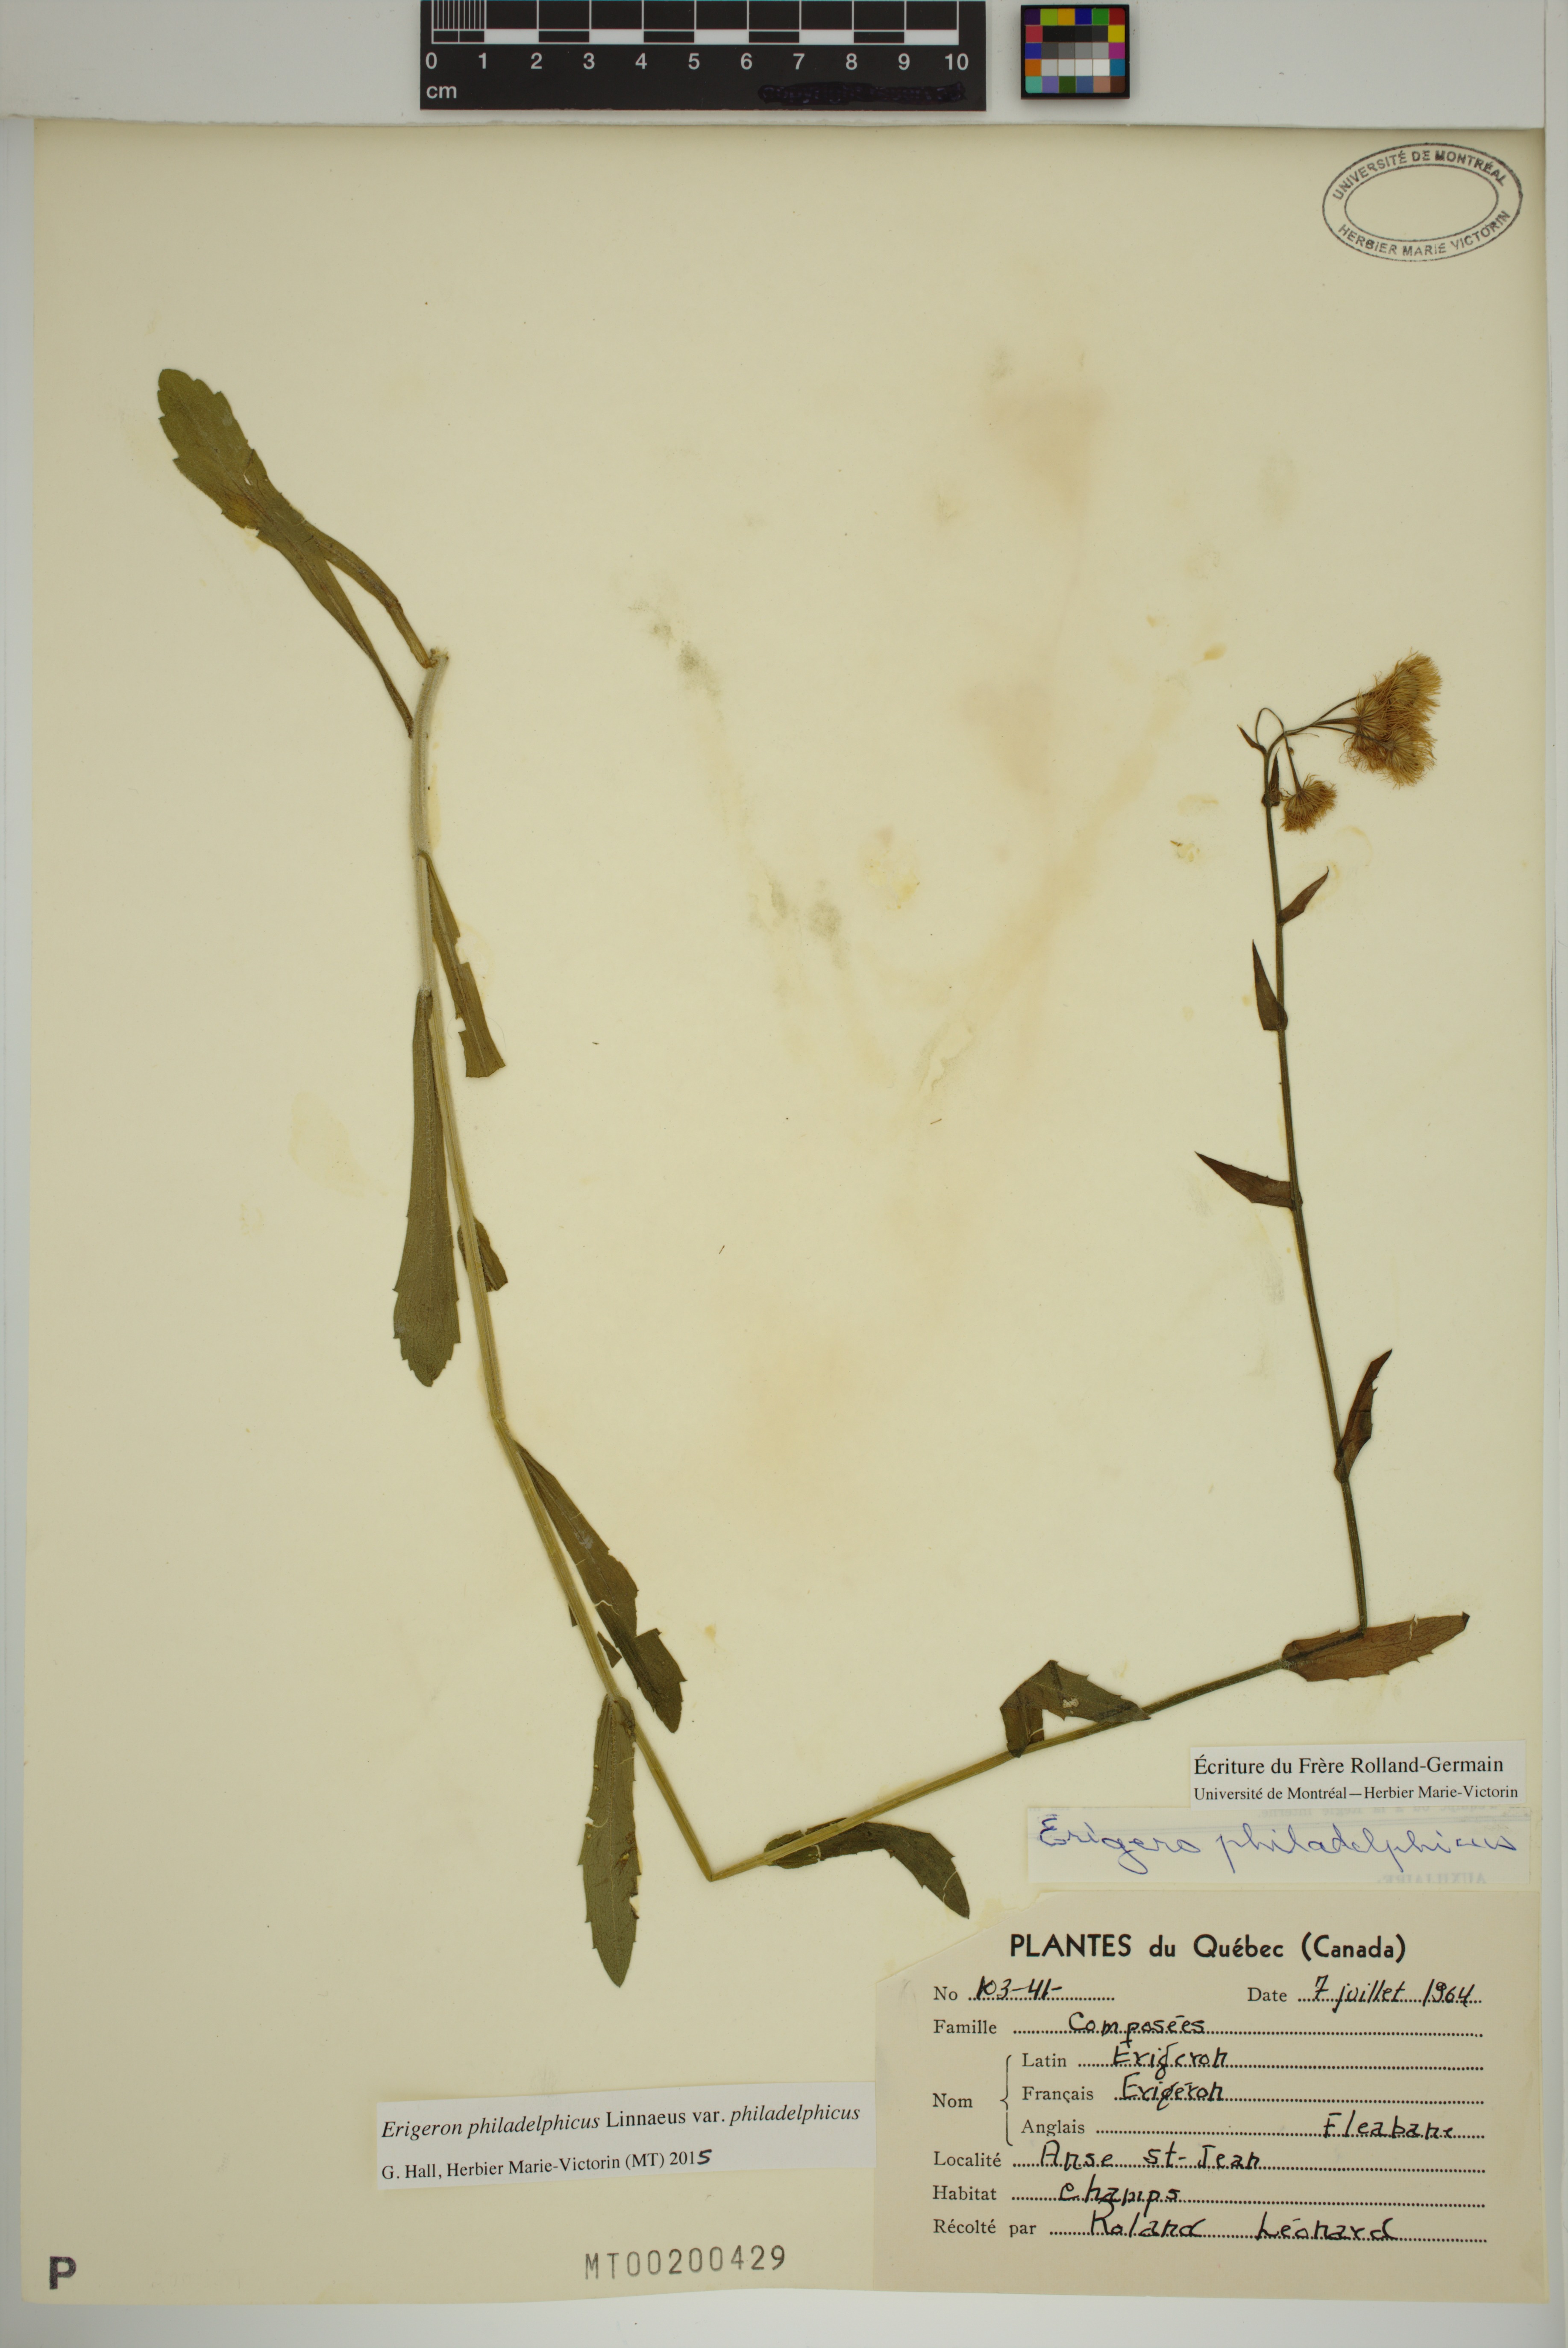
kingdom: Plantae
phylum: Tracheophyta
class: Magnoliopsida
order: Asterales
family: Asteraceae
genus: Erigeron
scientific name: Erigeron philadelphicus
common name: Robin's-plantain
